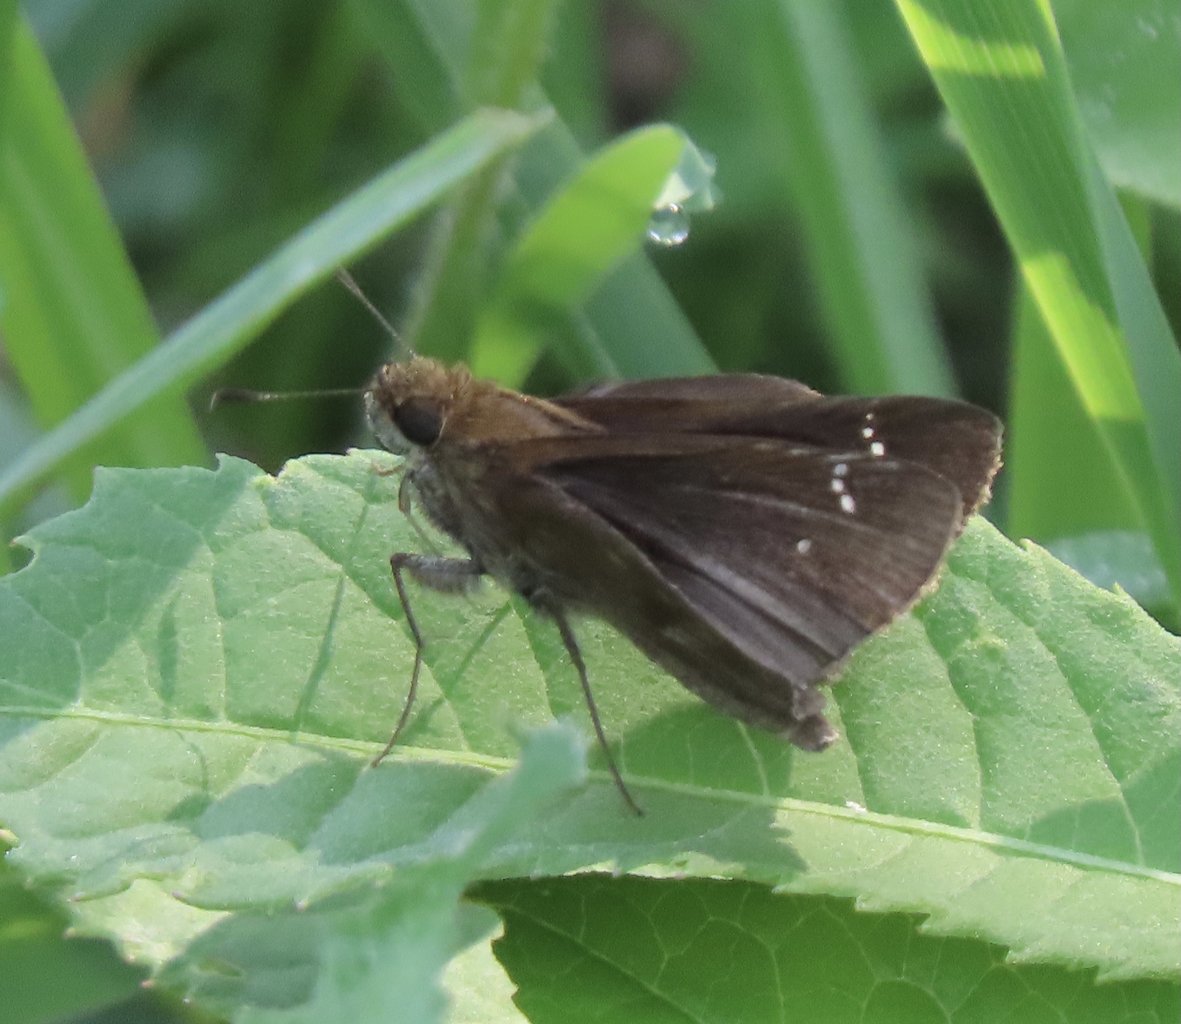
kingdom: Animalia
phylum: Arthropoda
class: Insecta
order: Lepidoptera
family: Hesperiidae
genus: Vernia
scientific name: Vernia verna
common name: Little Glassywing
